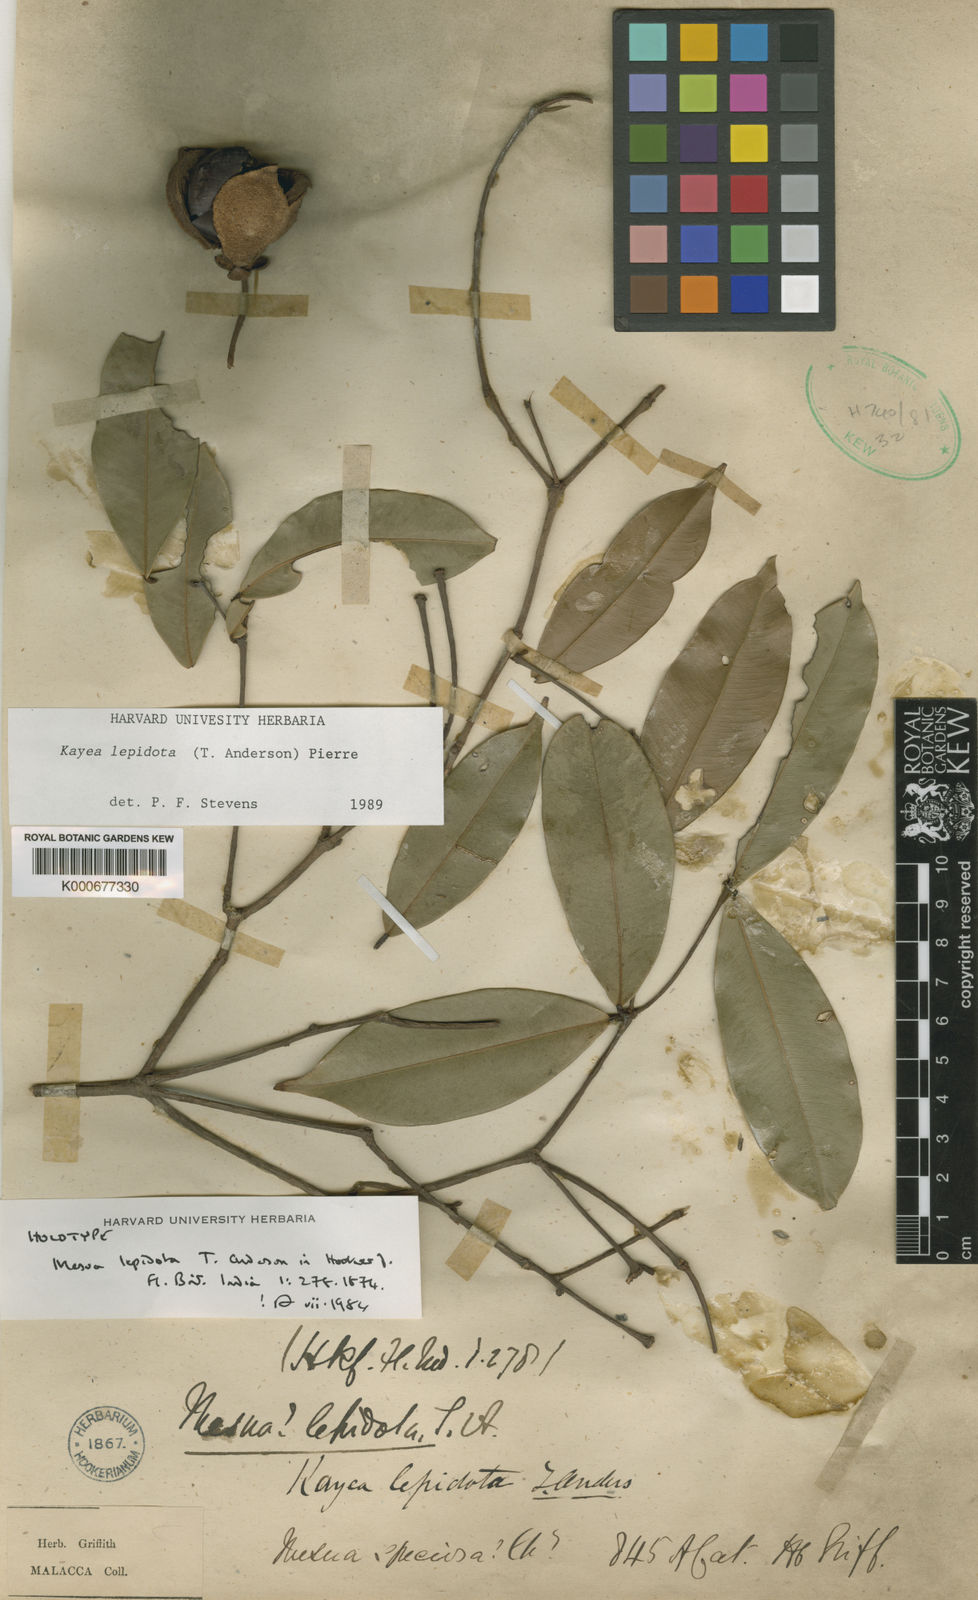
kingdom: Plantae
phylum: Tracheophyta
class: Magnoliopsida
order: Malpighiales
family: Calophyllaceae
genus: Kayea
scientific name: Kayea lepidota
